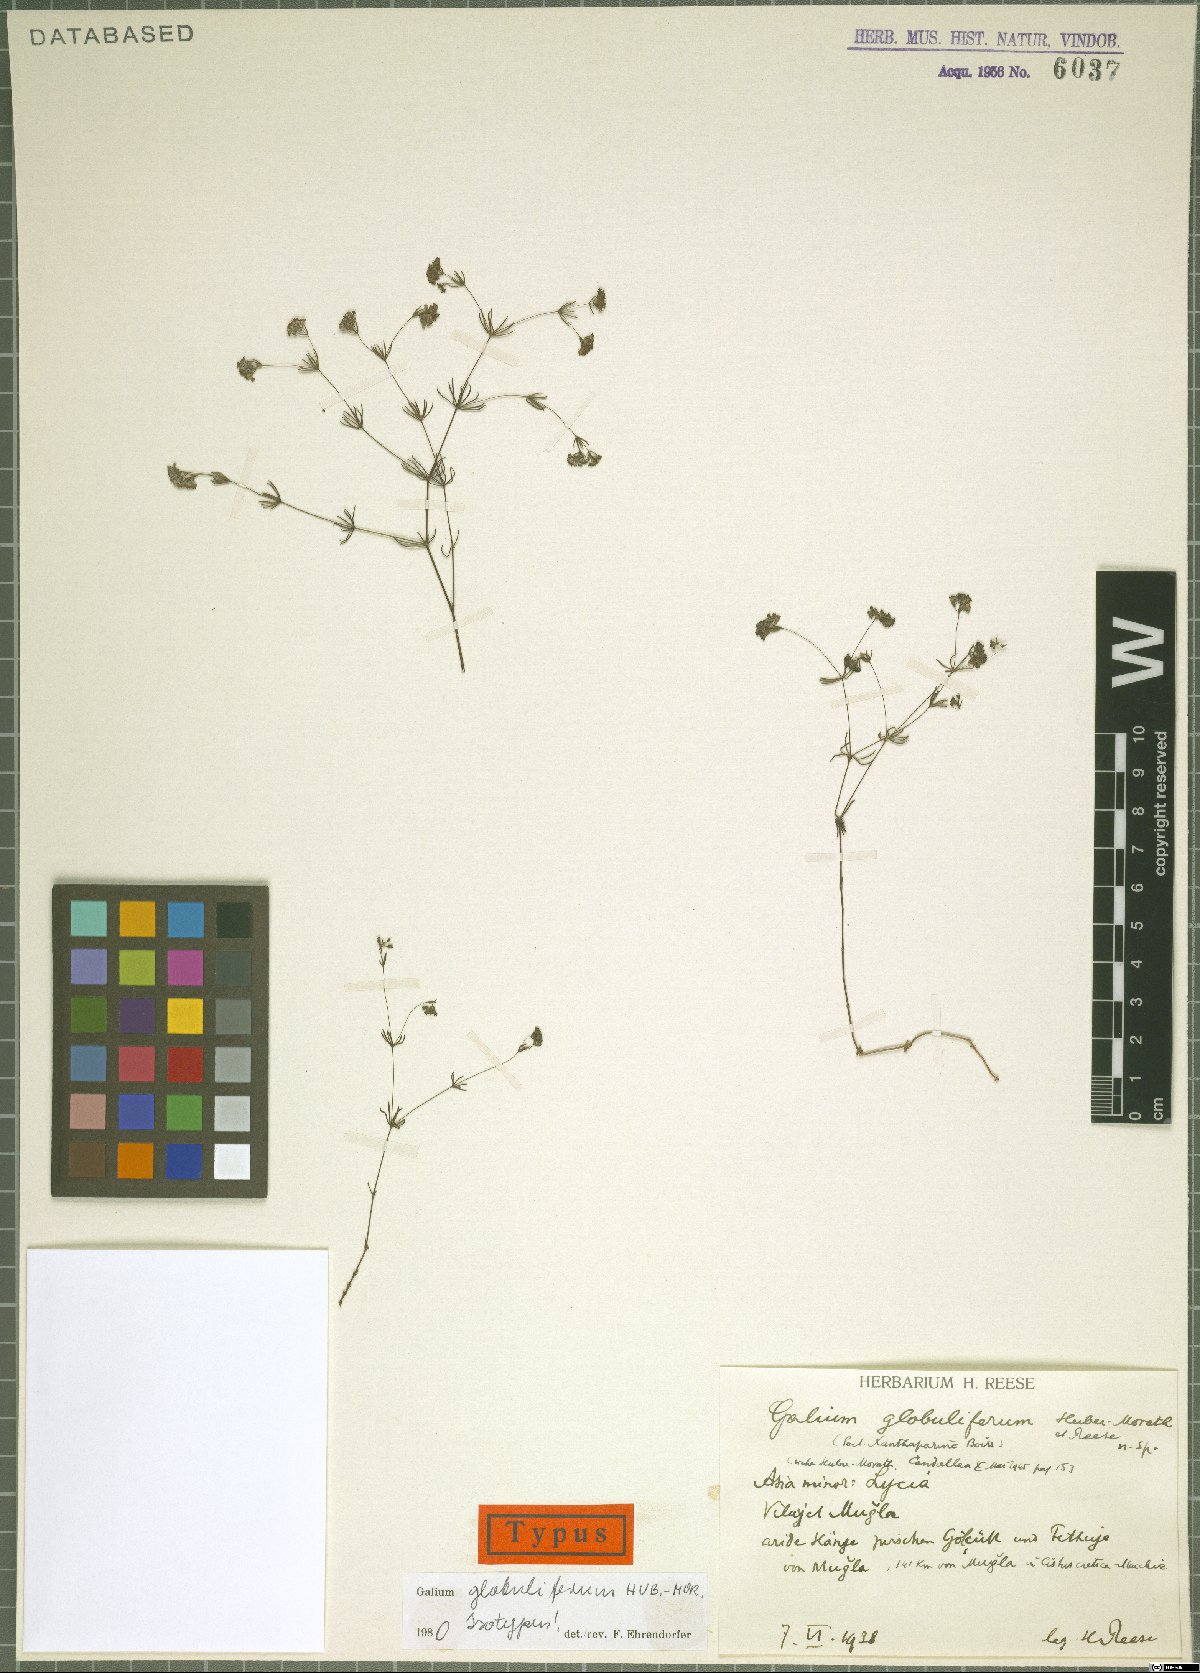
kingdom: Plantae
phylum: Tracheophyta
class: Magnoliopsida
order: Gentianales
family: Rubiaceae
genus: Galium
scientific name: Galium globuliferum
